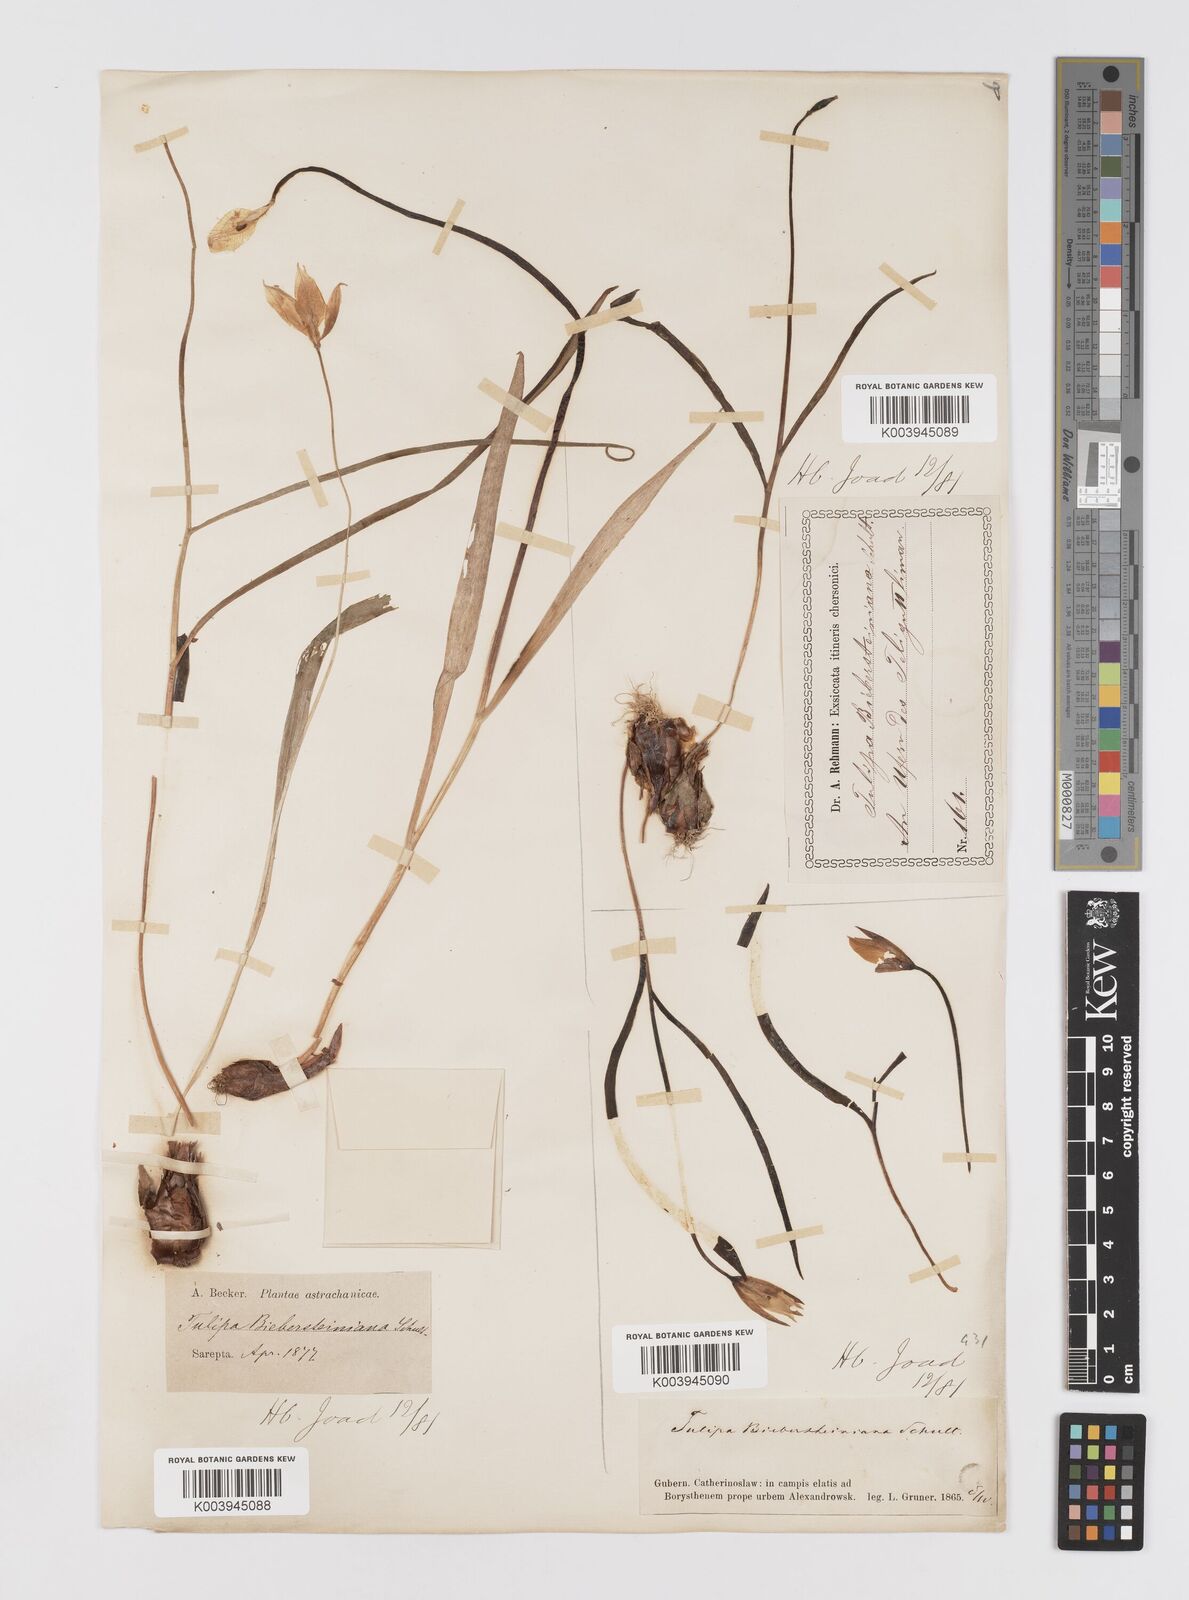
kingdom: Plantae
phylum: Tracheophyta
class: Liliopsida
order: Liliales
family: Liliaceae
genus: Tulipa
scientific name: Tulipa sylvestris
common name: Wild tulip
